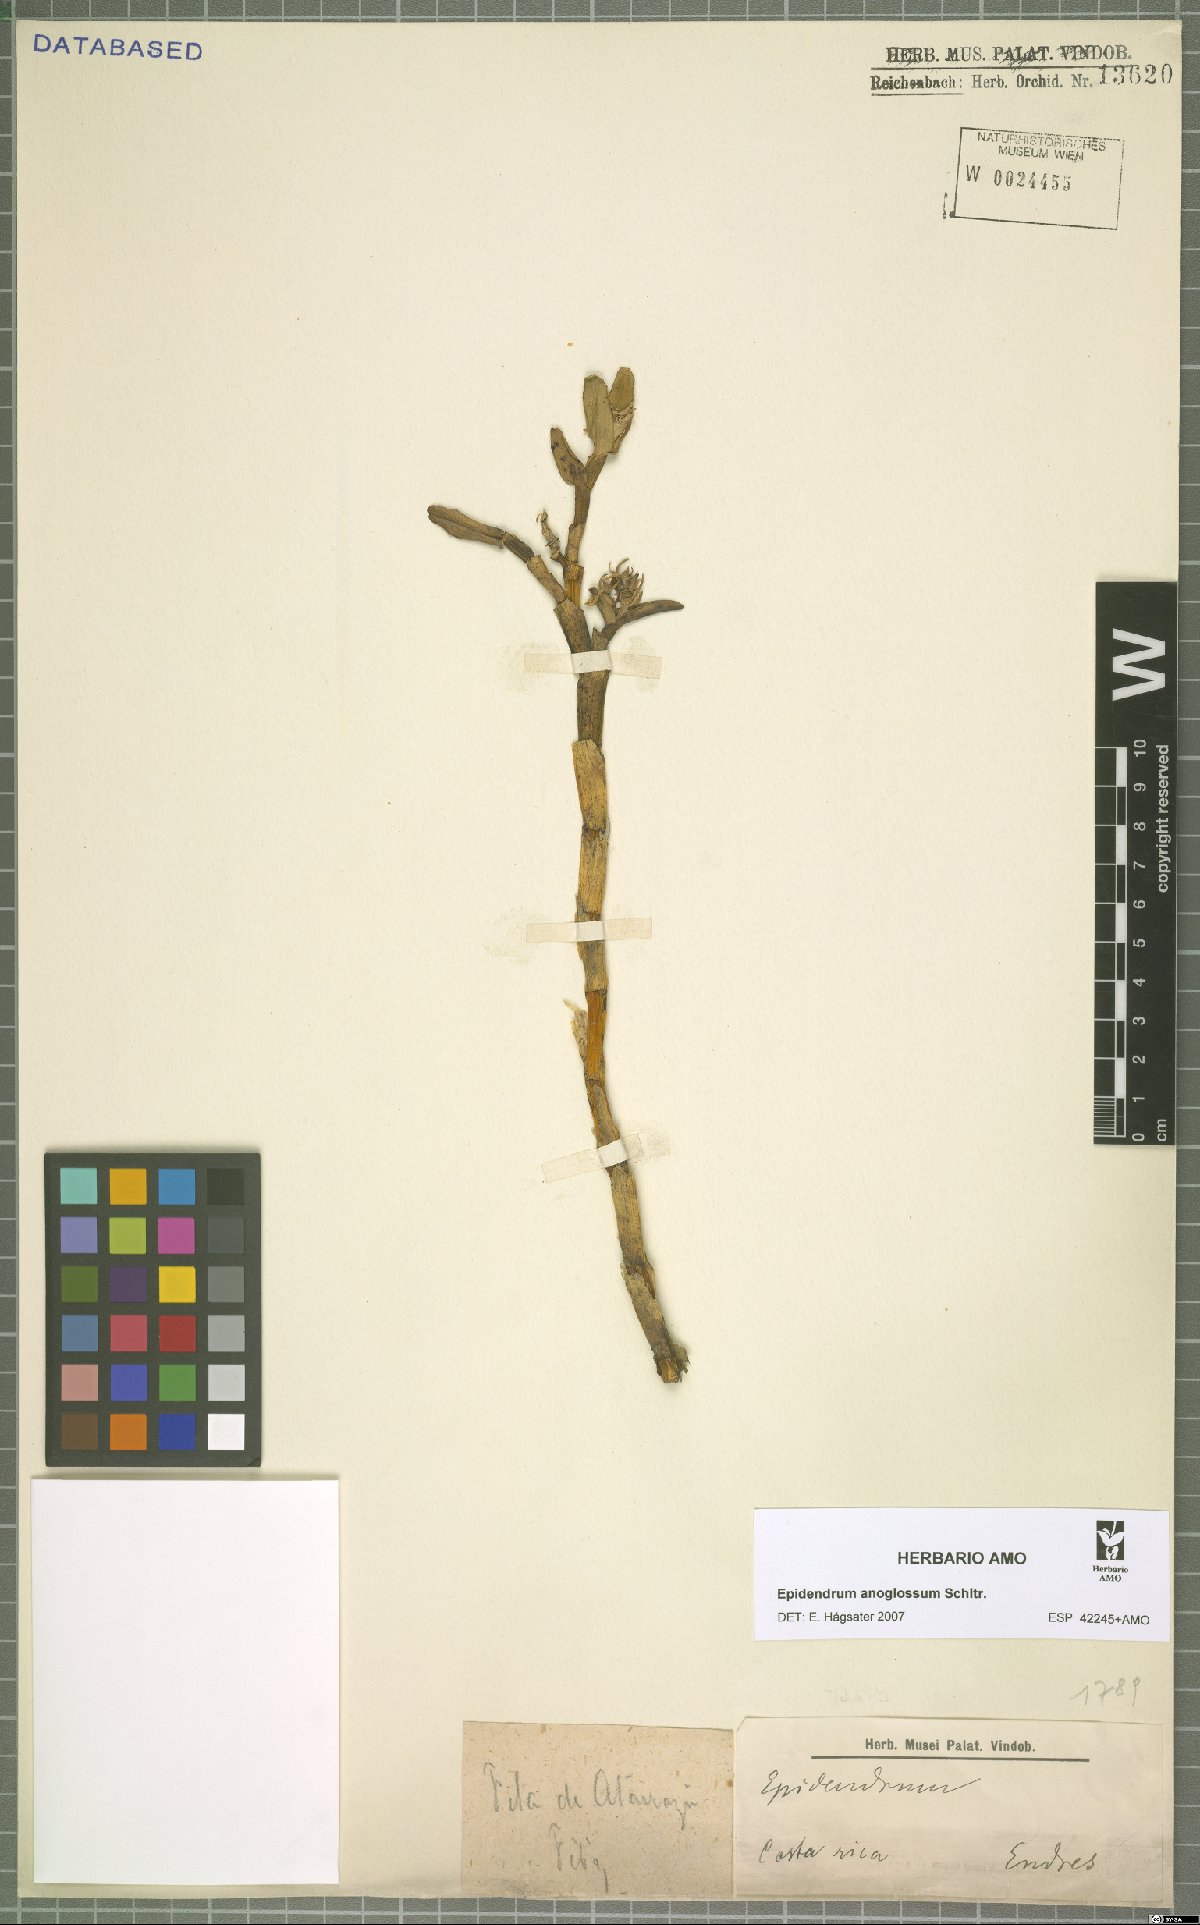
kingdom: Plantae
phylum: Tracheophyta
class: Liliopsida
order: Asparagales
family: Orchidaceae
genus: Epidendrum
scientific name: Epidendrum anoglossum
